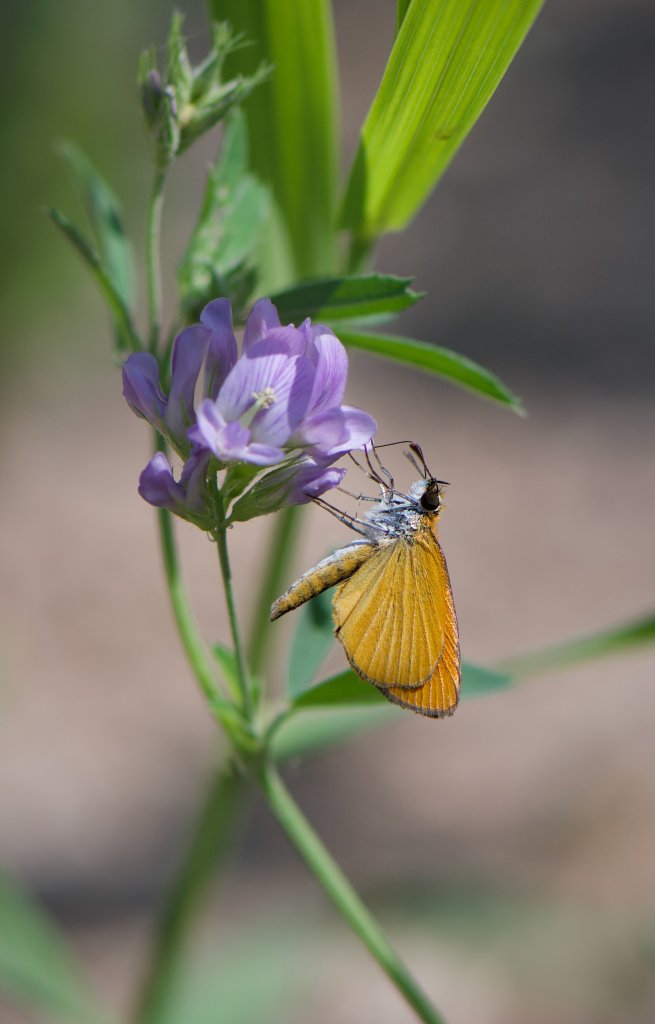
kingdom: Animalia
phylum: Arthropoda
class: Insecta
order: Lepidoptera
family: Hesperiidae
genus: Ancyloxypha
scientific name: Ancyloxypha numitor
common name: Least Skipper
